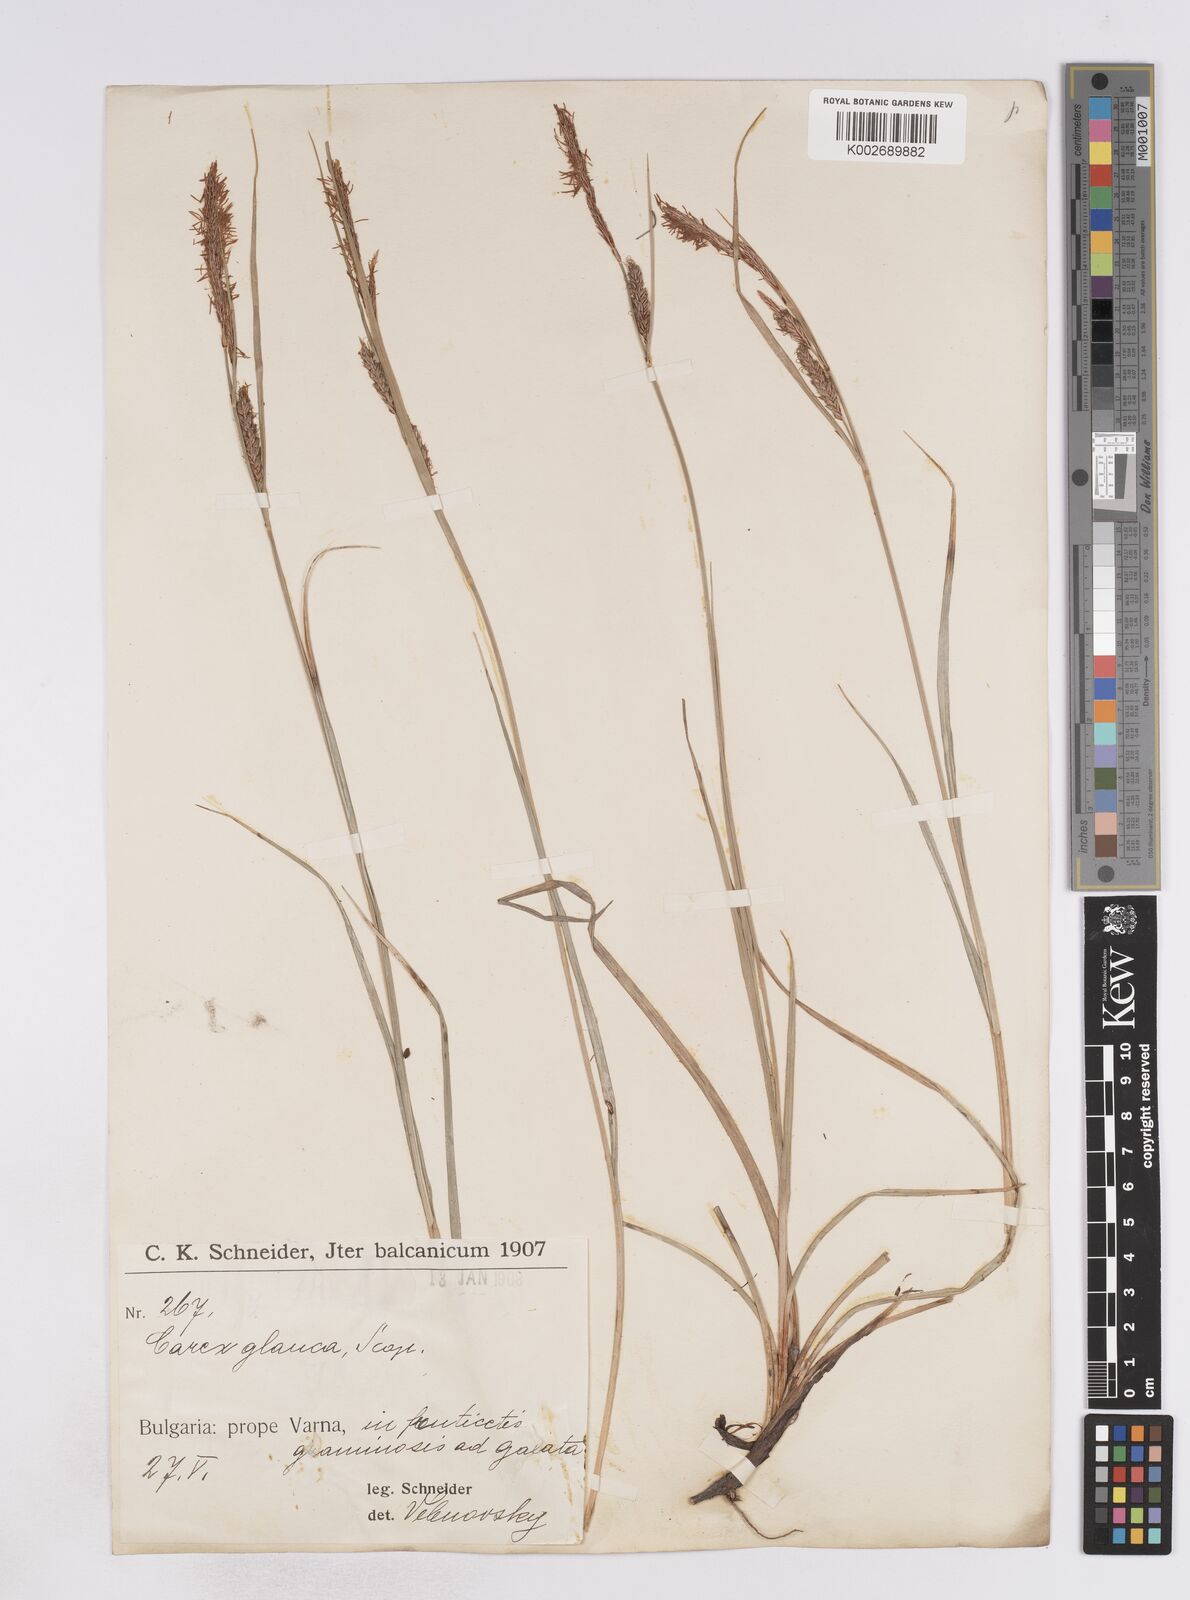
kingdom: Plantae
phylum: Tracheophyta
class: Liliopsida
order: Poales
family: Cyperaceae
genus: Carex
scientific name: Carex flacca
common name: Glaucous sedge
